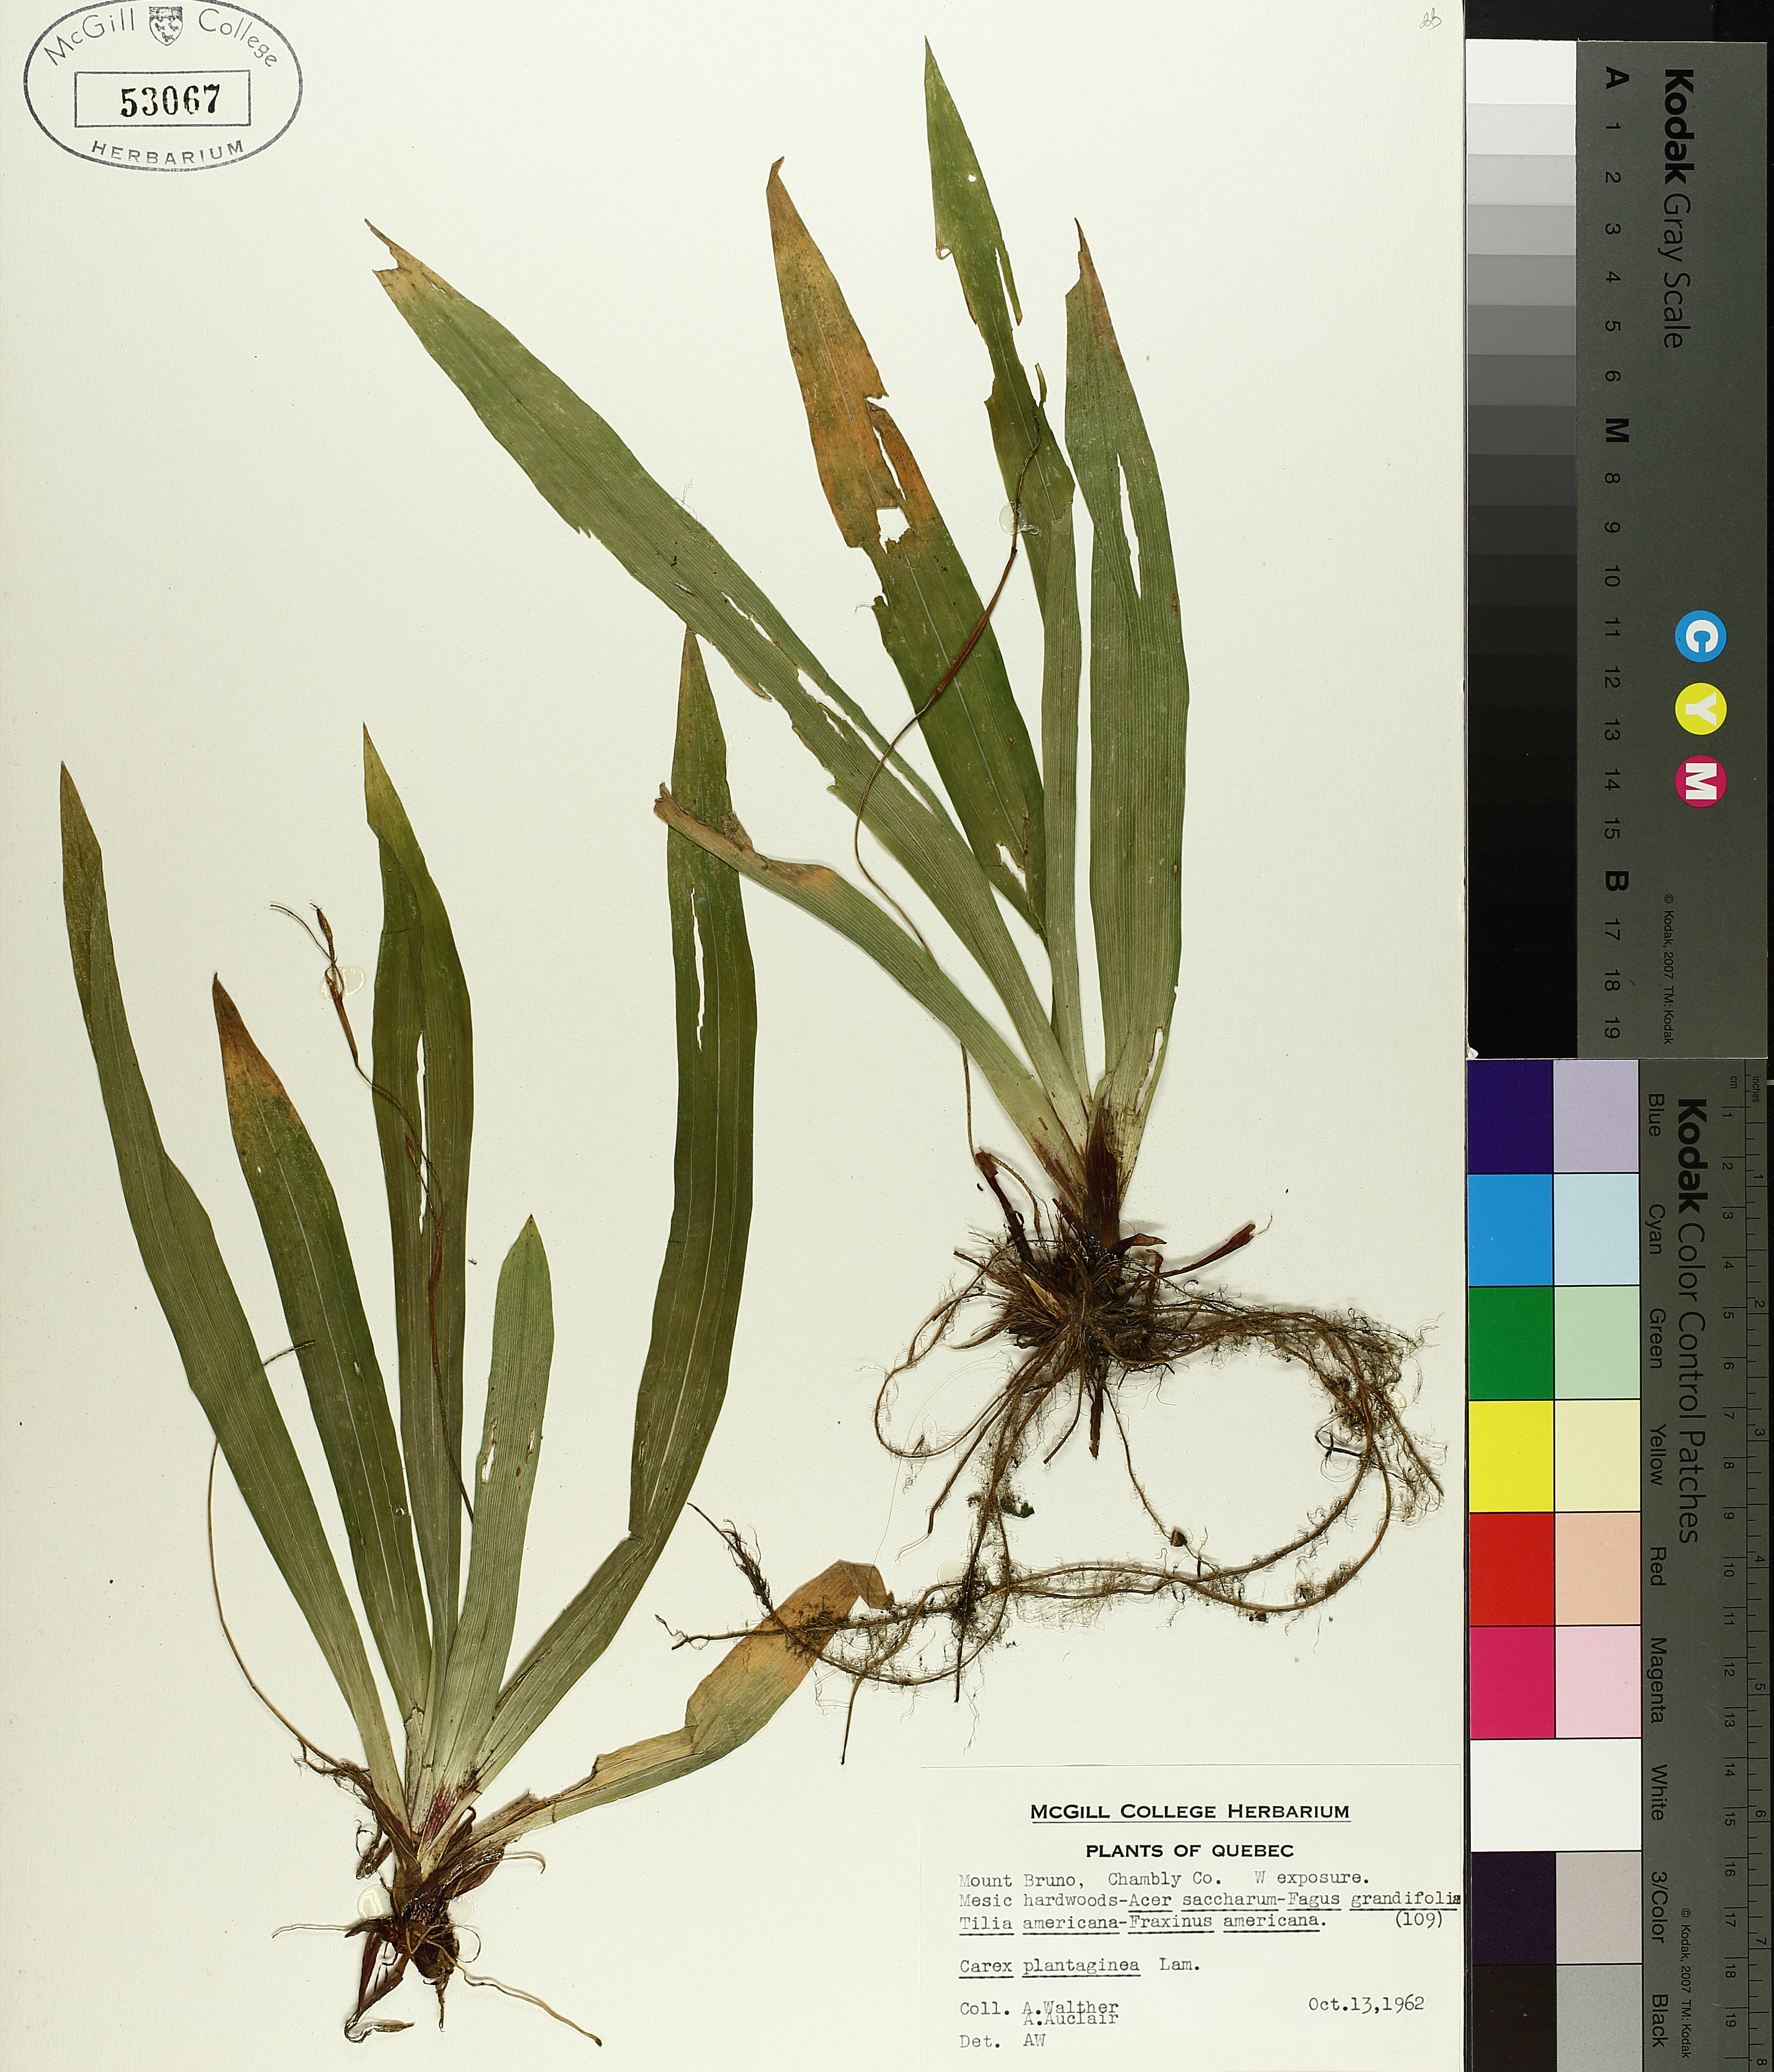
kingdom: Plantae
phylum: Tracheophyta
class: Liliopsida
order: Poales
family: Cyperaceae
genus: Carex
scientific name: Carex plantaginea
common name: Plantain-leaved sedge
